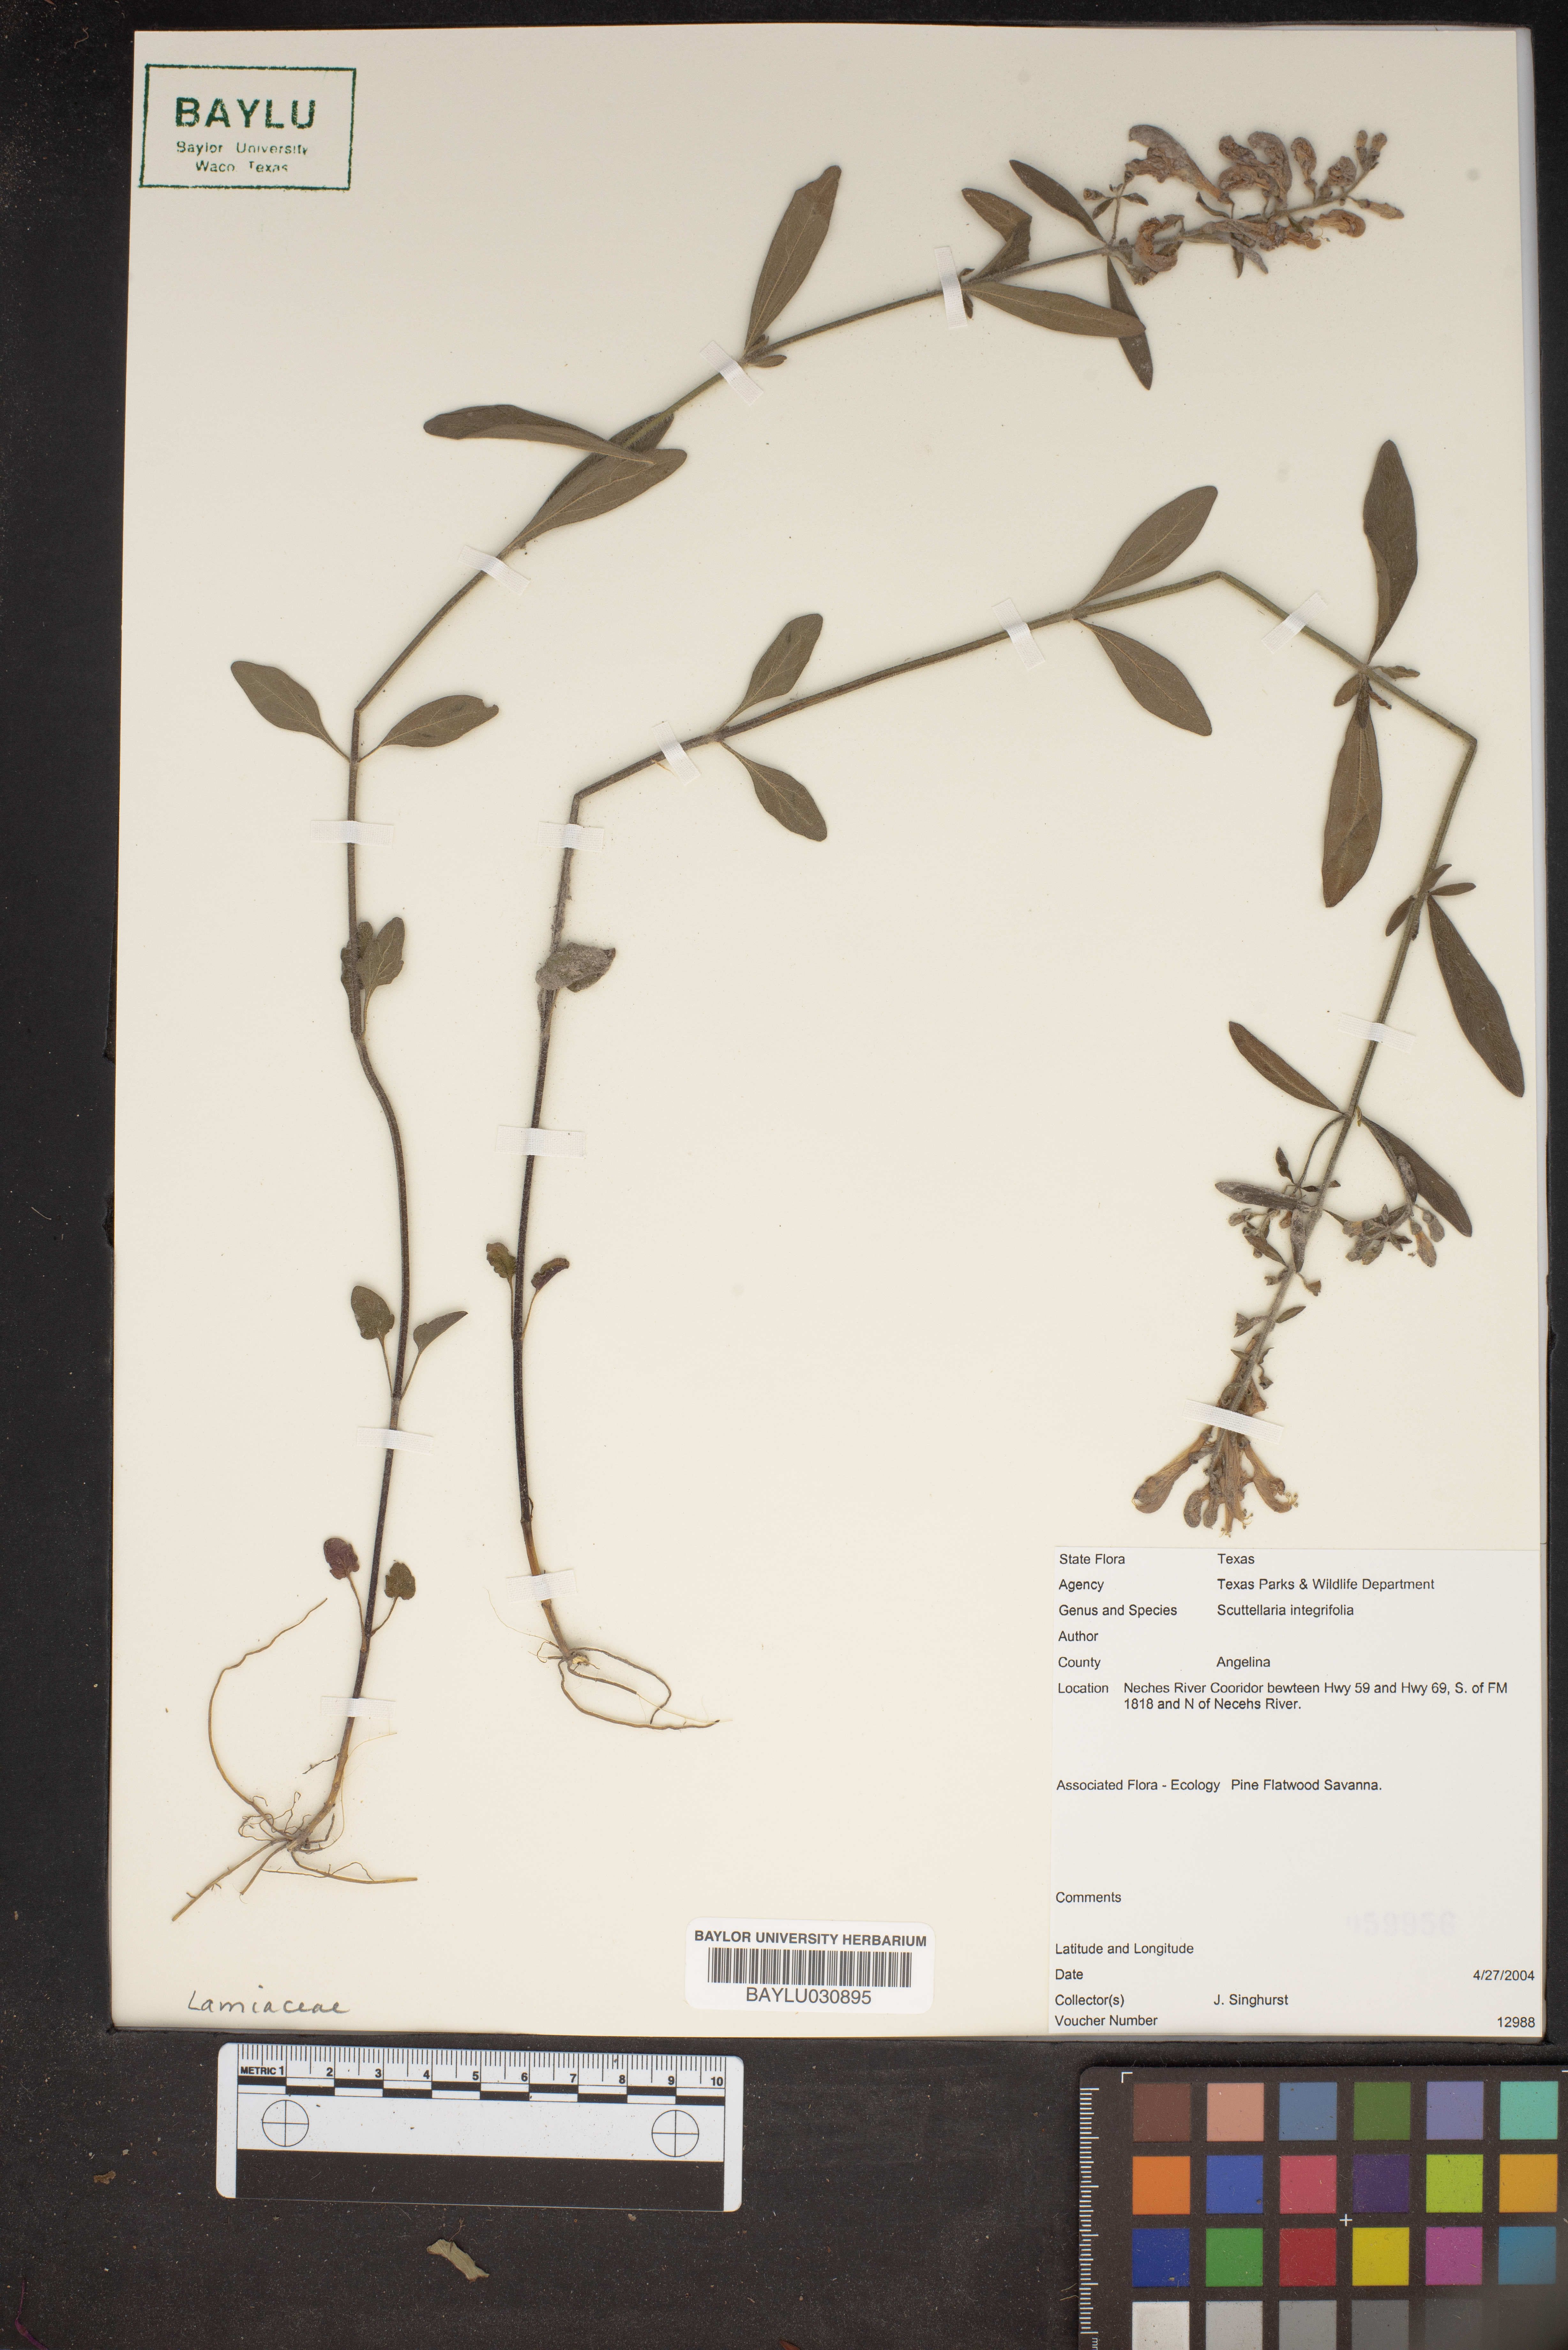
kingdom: Plantae
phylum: Tracheophyta
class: Magnoliopsida
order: Lamiales
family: Lamiaceae
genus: Scutellaria
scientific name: Scutellaria integrifolia
